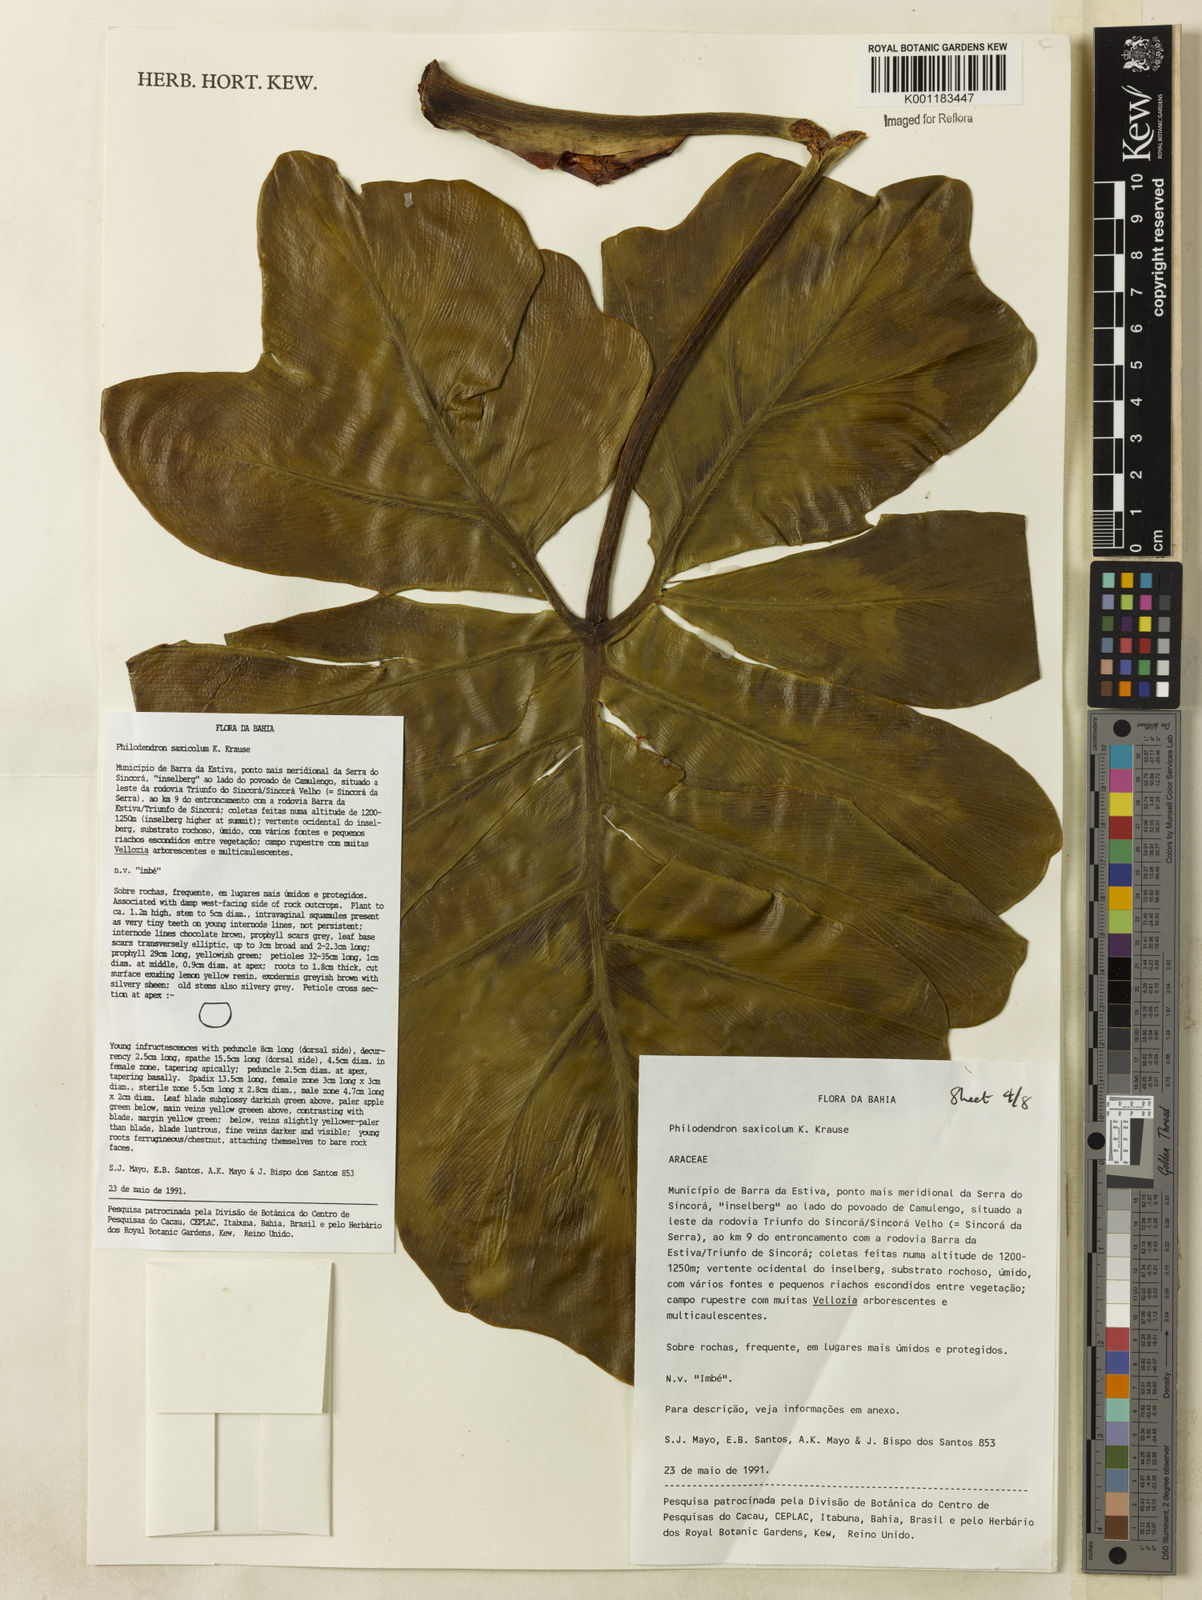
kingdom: Plantae
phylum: Tracheophyta
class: Liliopsida
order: Alismatales
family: Araceae
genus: Thaumatophyllum
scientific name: Thaumatophyllum saxicola
